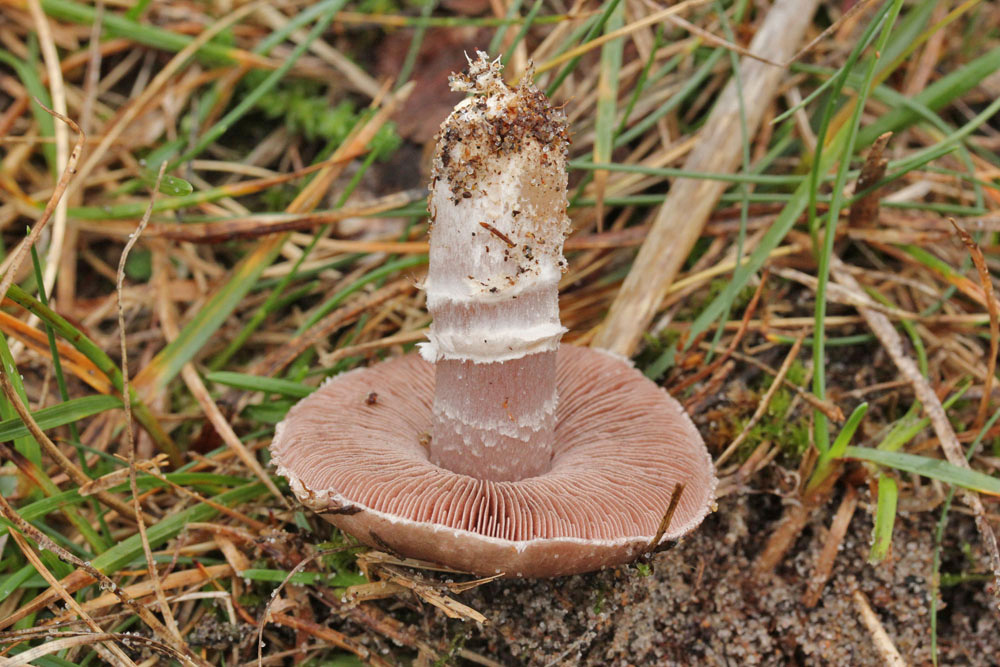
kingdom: Fungi
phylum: Basidiomycota
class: Agaricomycetes
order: Agaricales
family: Agaricaceae
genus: Agaricus
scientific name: Agaricus cupreobrunneus
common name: kobberbrun champignon
